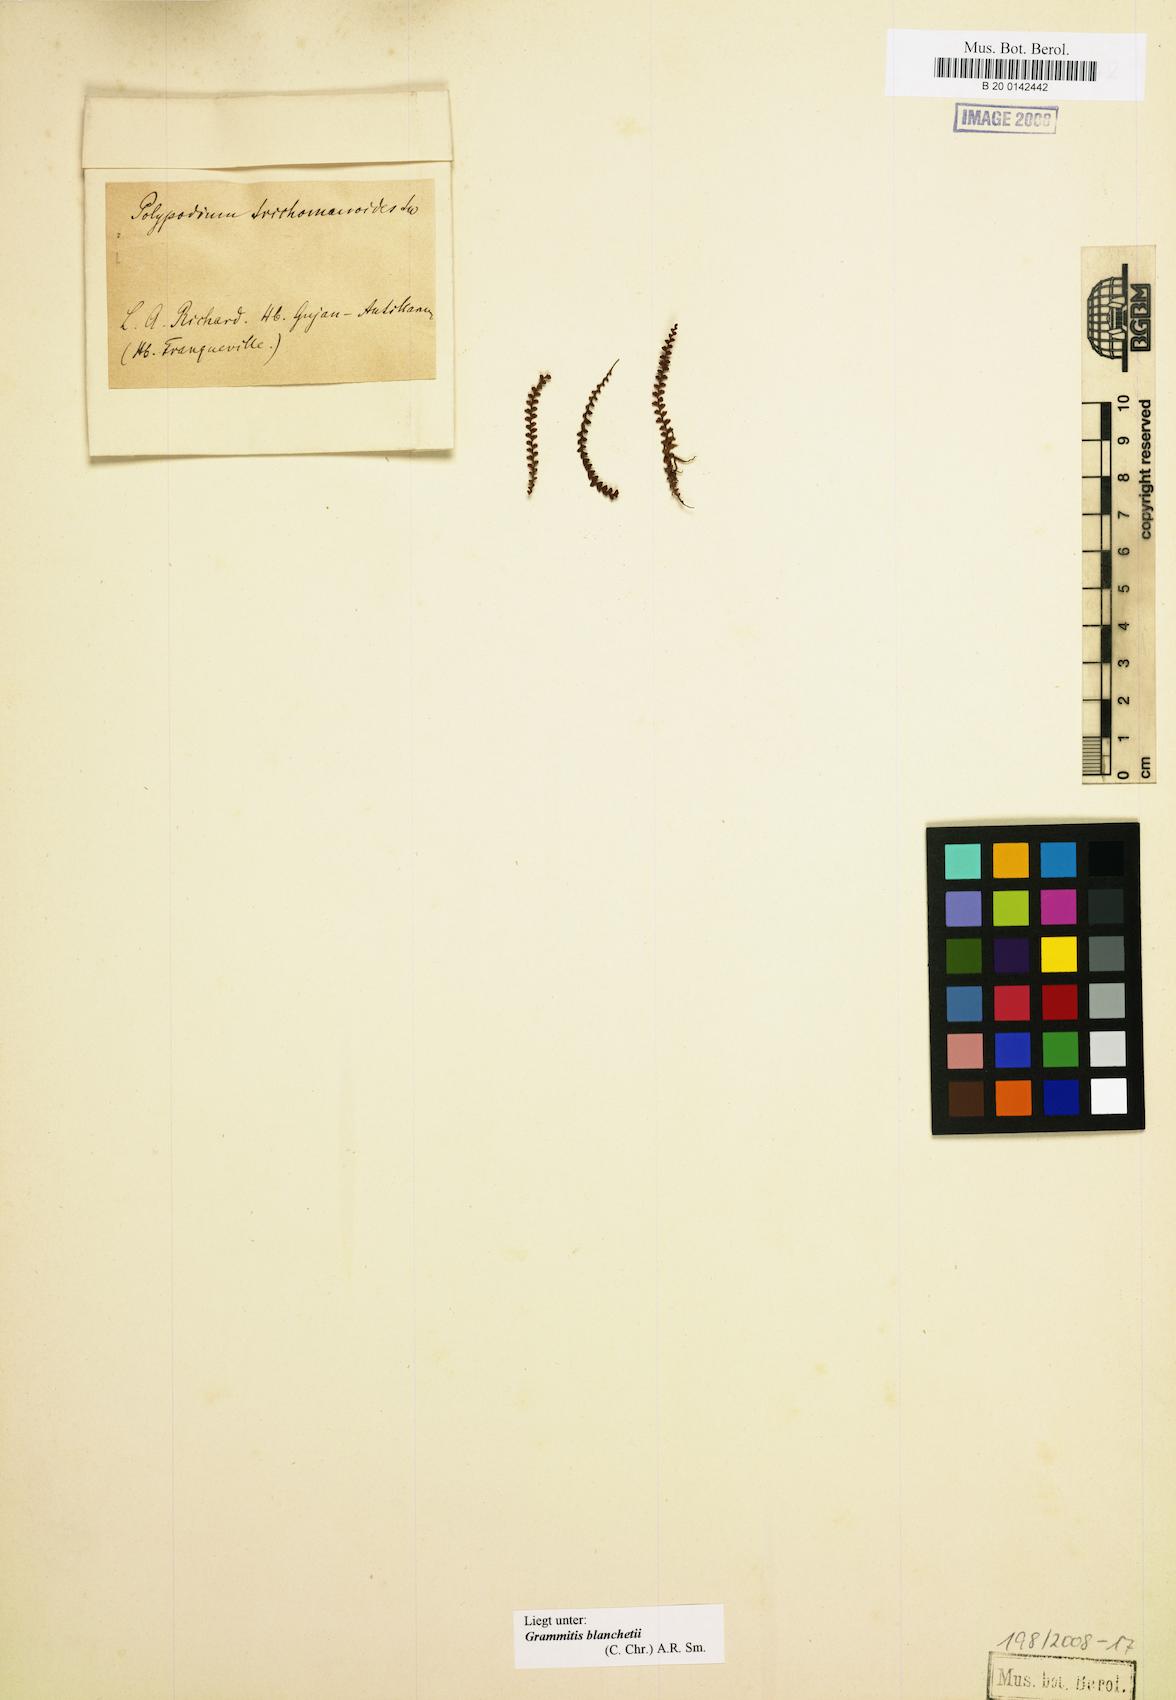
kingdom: Plantae
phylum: Tracheophyta
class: Polypodiopsida
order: Polypodiales
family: Polypodiaceae
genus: Moranopteris
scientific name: Moranopteris nana
